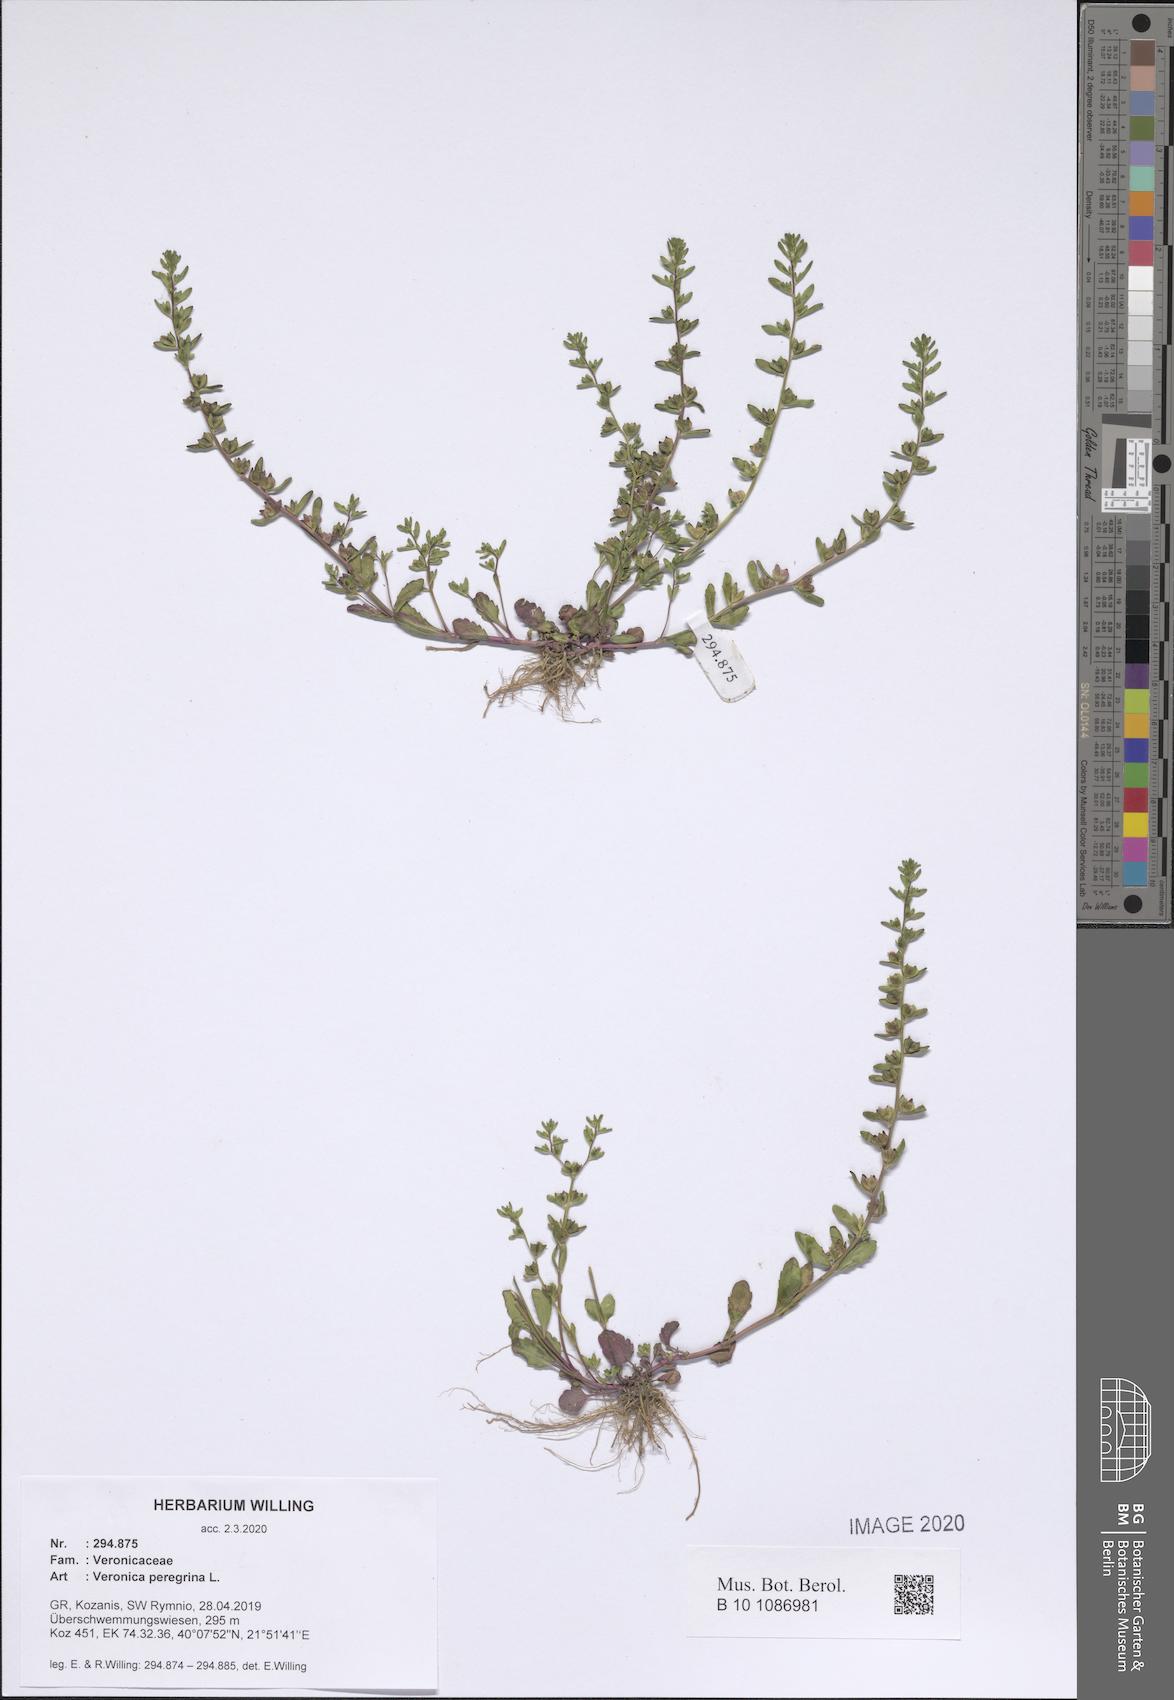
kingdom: Plantae
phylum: Tracheophyta
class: Magnoliopsida
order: Lamiales
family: Plantaginaceae
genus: Veronica
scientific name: Veronica peregrina
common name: Neckweed
